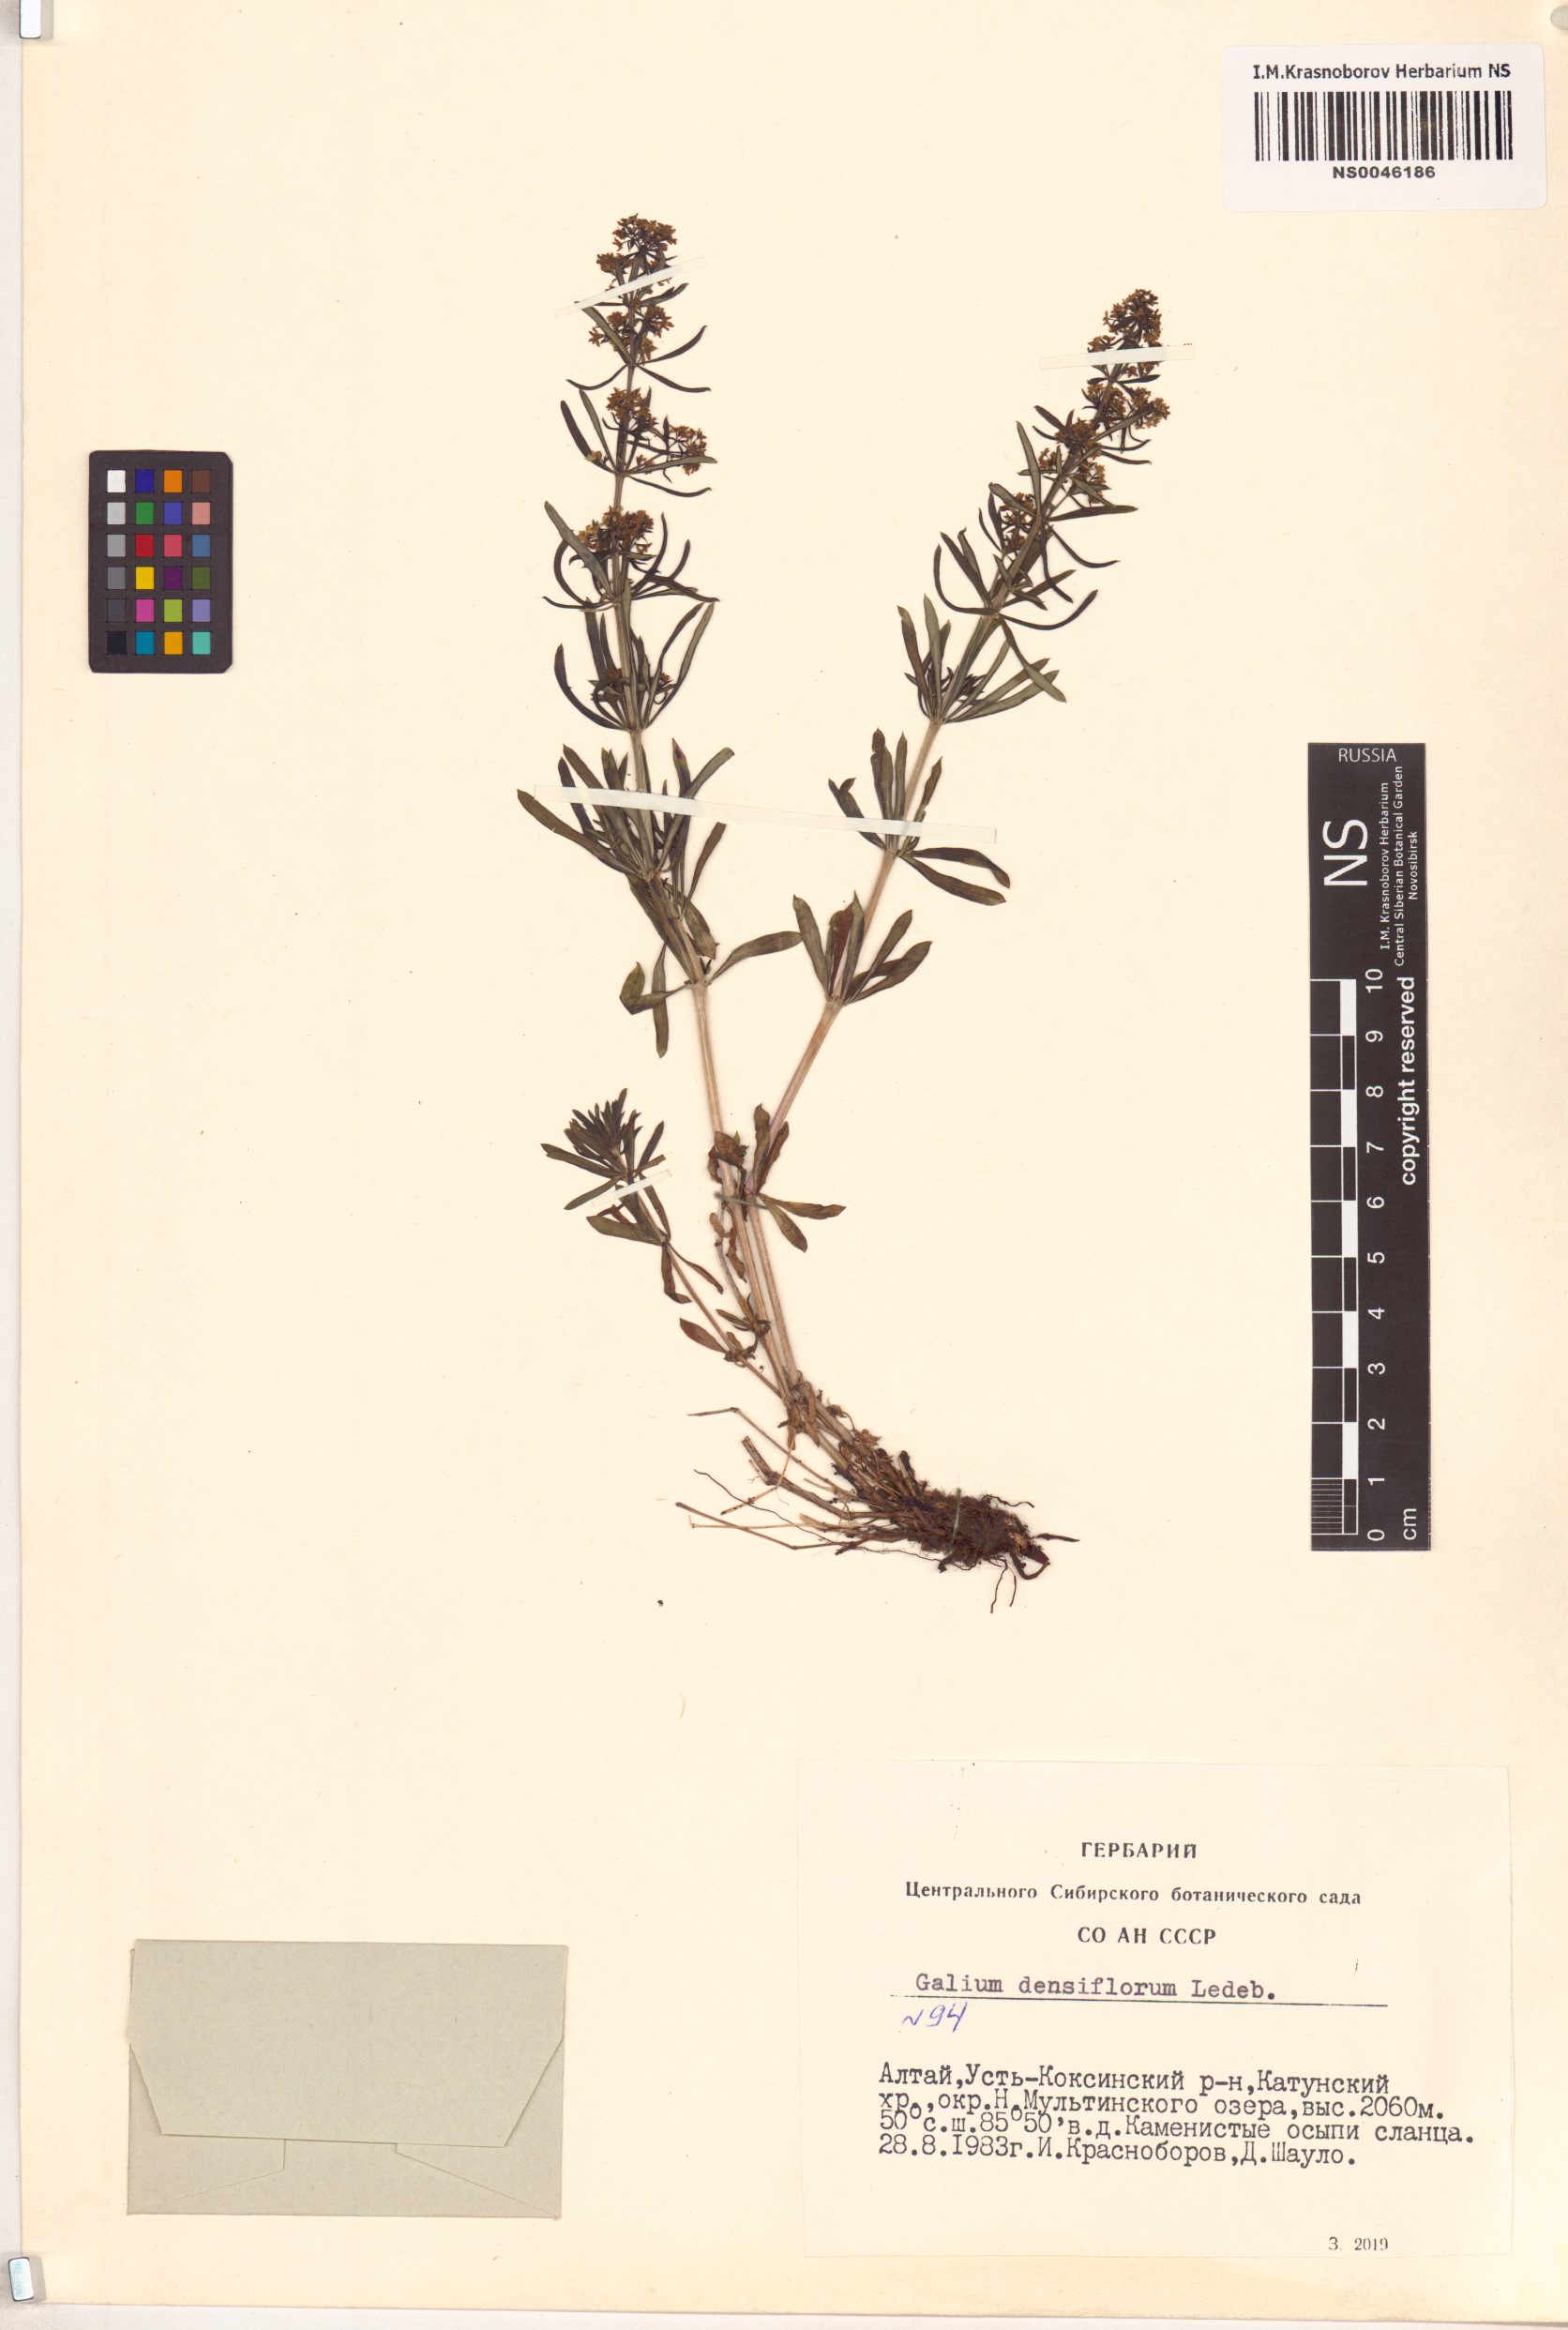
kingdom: Plantae
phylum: Tracheophyta
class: Magnoliopsida
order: Gentianales
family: Rubiaceae
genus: Galium
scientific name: Galium densiflorum
